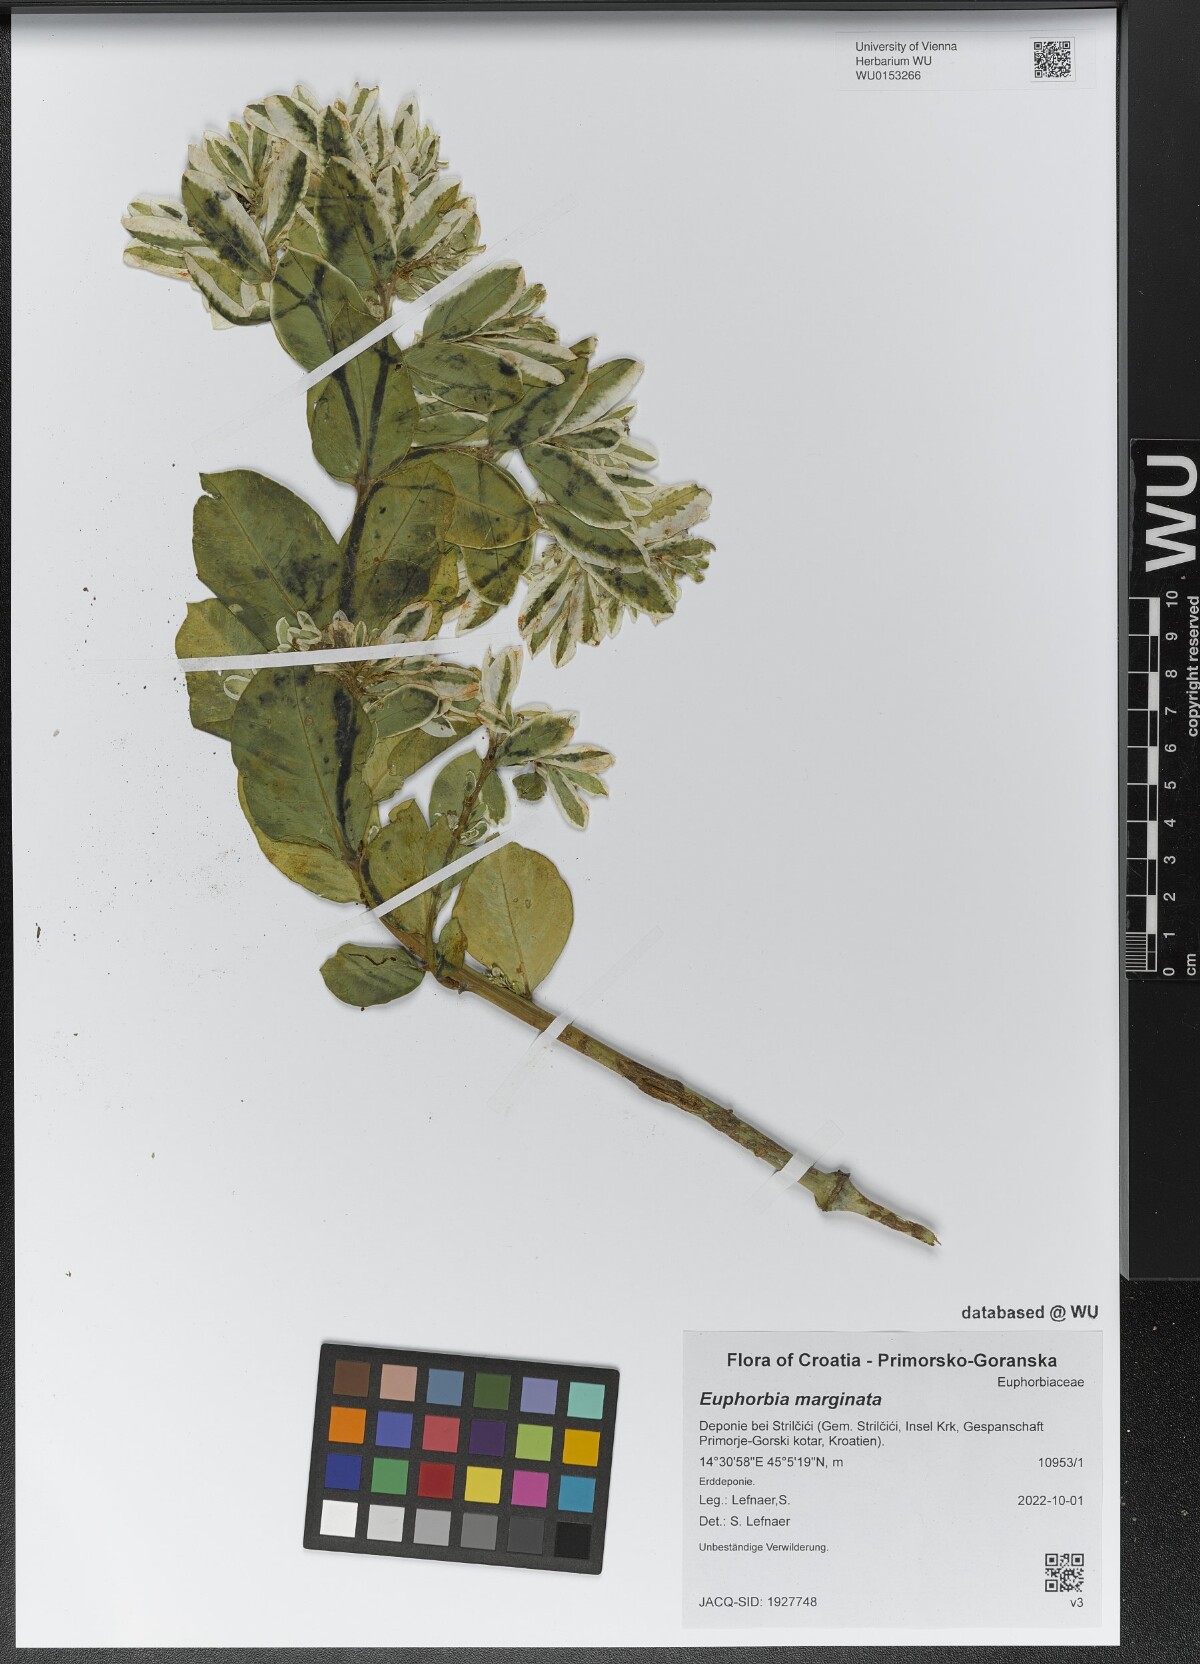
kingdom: Plantae
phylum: Tracheophyta
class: Magnoliopsida
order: Malpighiales
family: Euphorbiaceae
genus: Euphorbia
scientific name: Euphorbia marginata
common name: Ghostweed
